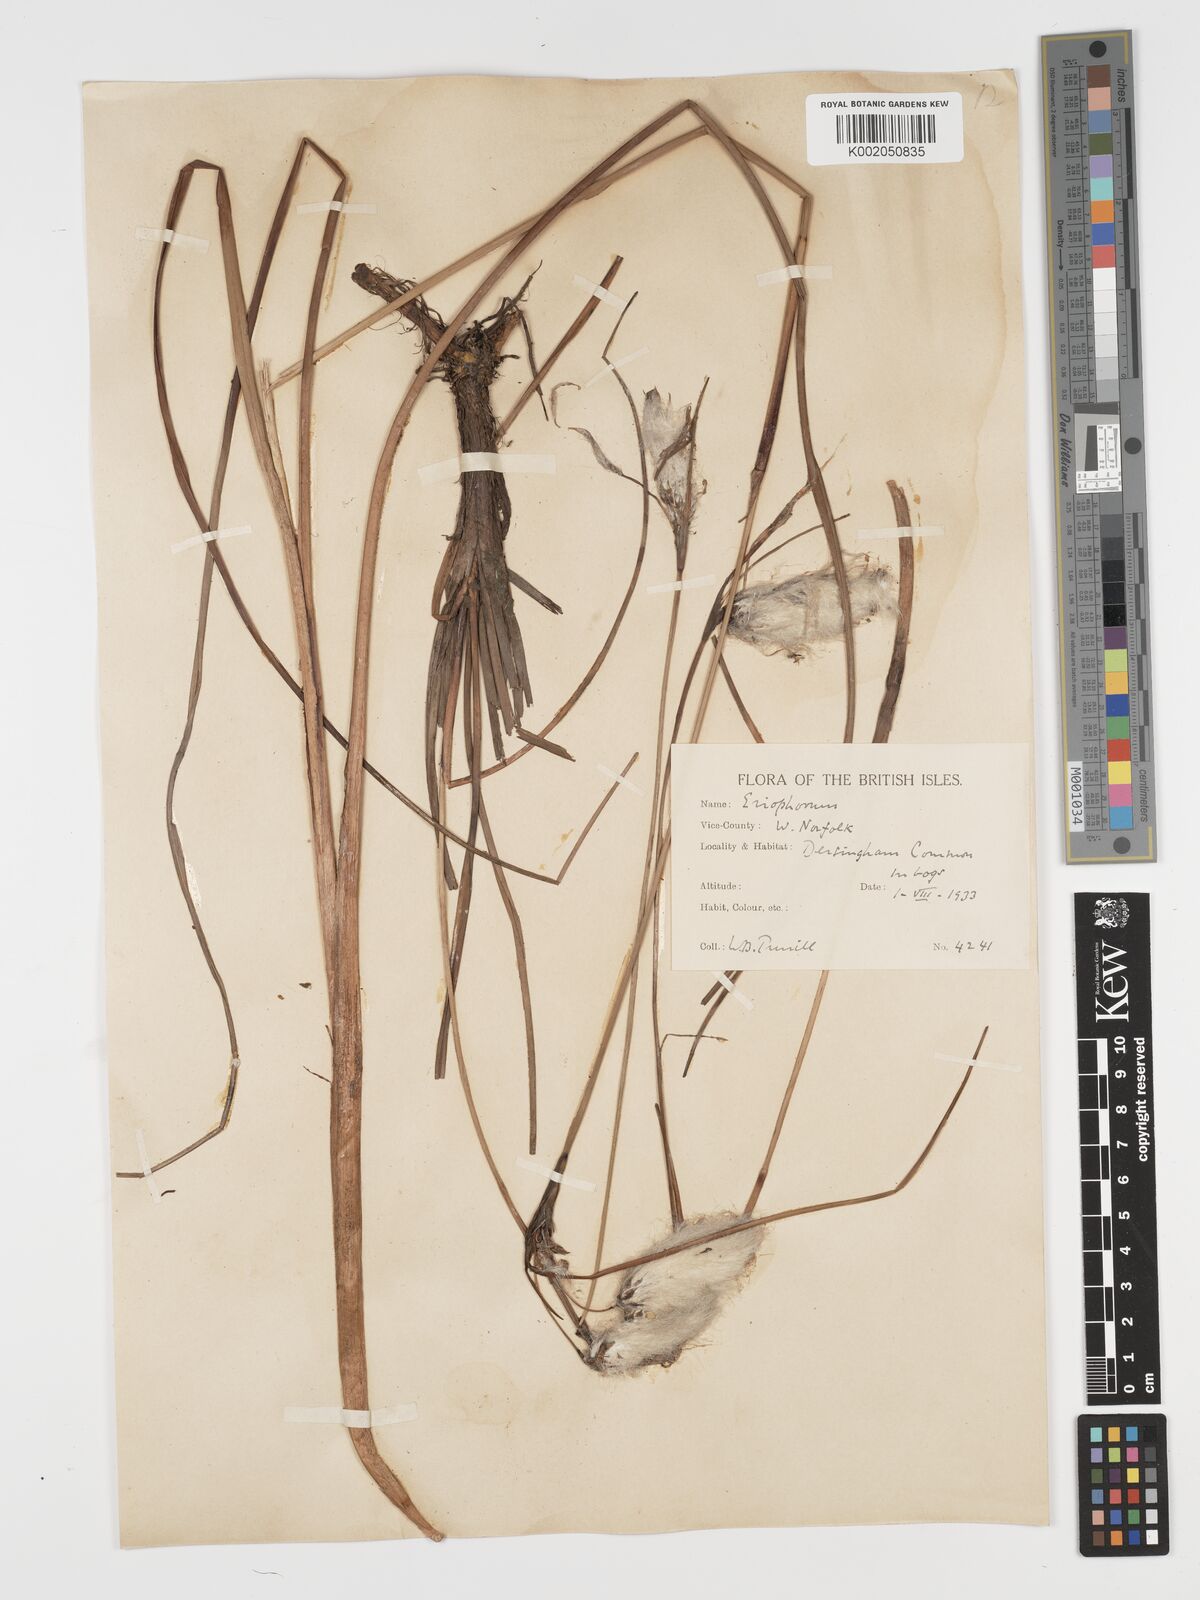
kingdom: Plantae
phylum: Tracheophyta
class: Liliopsida
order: Poales
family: Cyperaceae
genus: Eriophorum
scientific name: Eriophorum angustifolium
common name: Common cottongrass
